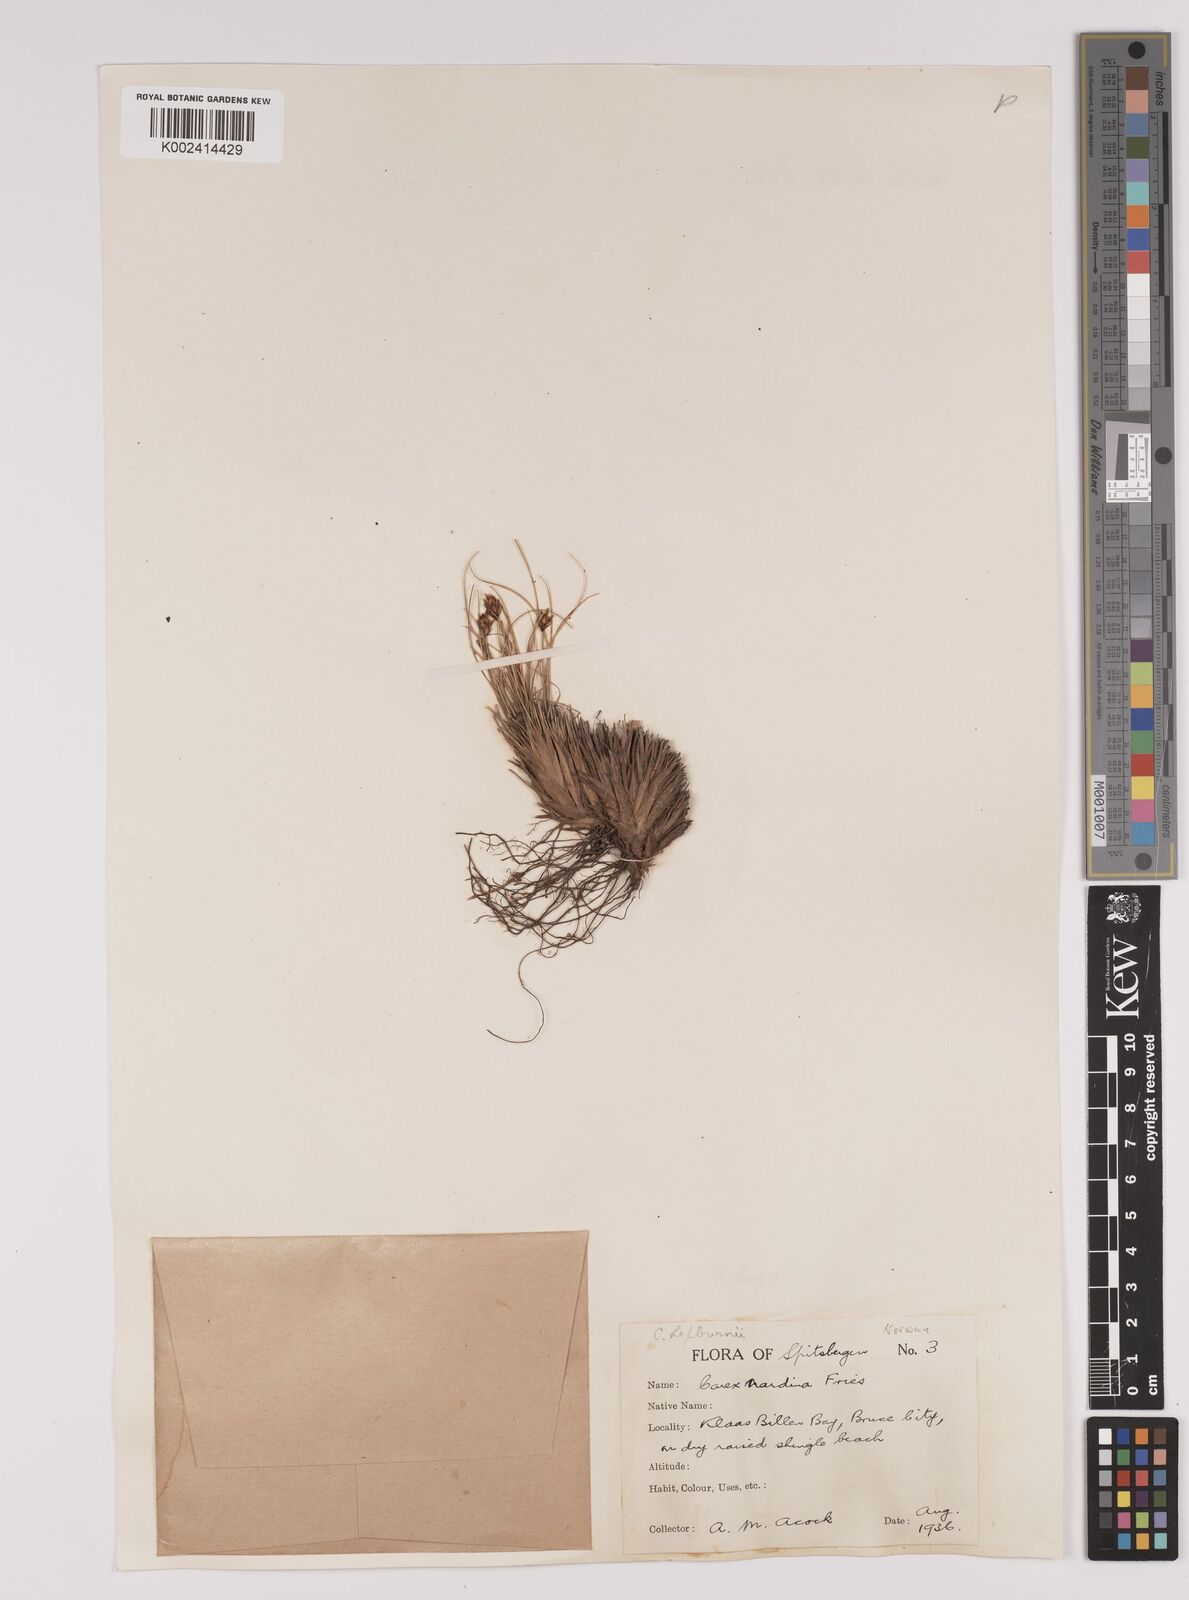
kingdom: Plantae
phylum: Tracheophyta
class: Liliopsida
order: Poales
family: Cyperaceae
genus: Carex
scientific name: Carex nardina
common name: Nard sedge
